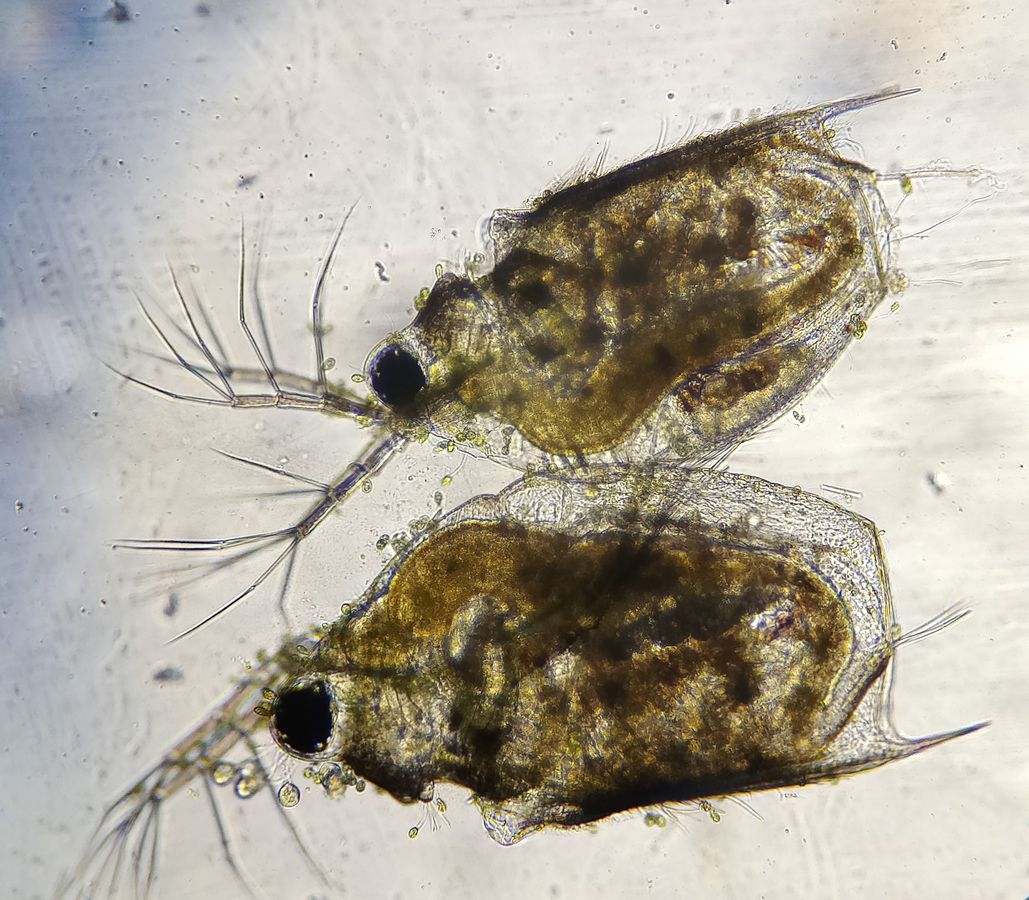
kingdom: Animalia
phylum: Arthropoda
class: Branchiopoda
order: Diplostraca
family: Daphniidae
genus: Scapholeberis
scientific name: Scapholeberis mucronata
